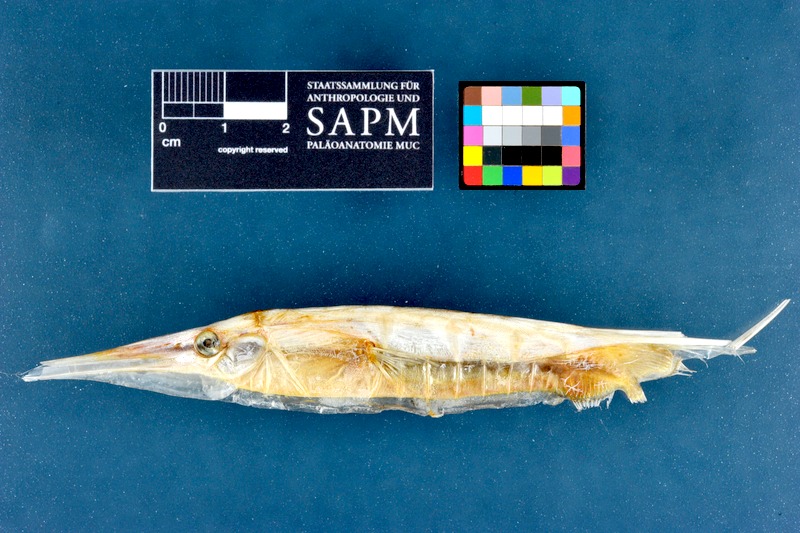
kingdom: Animalia
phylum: Chordata
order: Syngnathiformes
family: Centriscidae
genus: Aeoliscus
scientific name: Aeoliscus strigatus
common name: Canif
